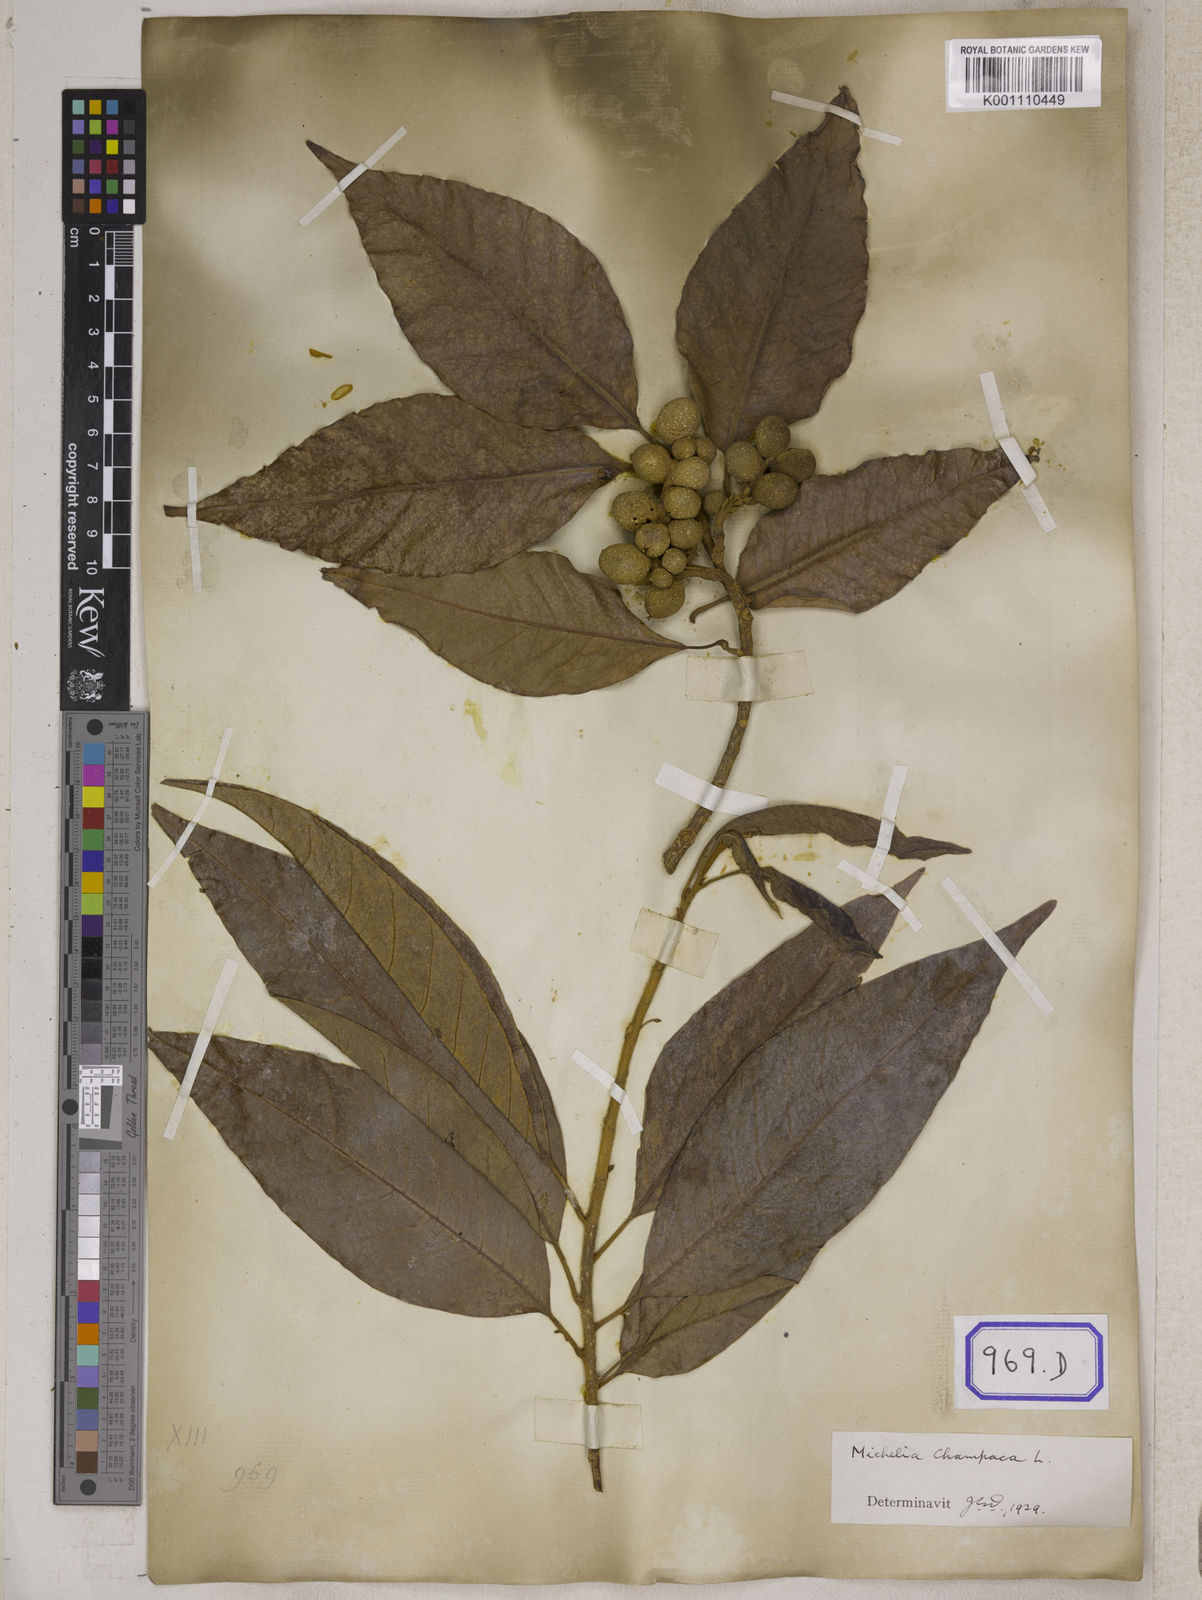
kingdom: Plantae
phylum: Tracheophyta
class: Magnoliopsida
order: Magnoliales
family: Magnoliaceae
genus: Magnolia
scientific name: Magnolia champaca
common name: Champak
